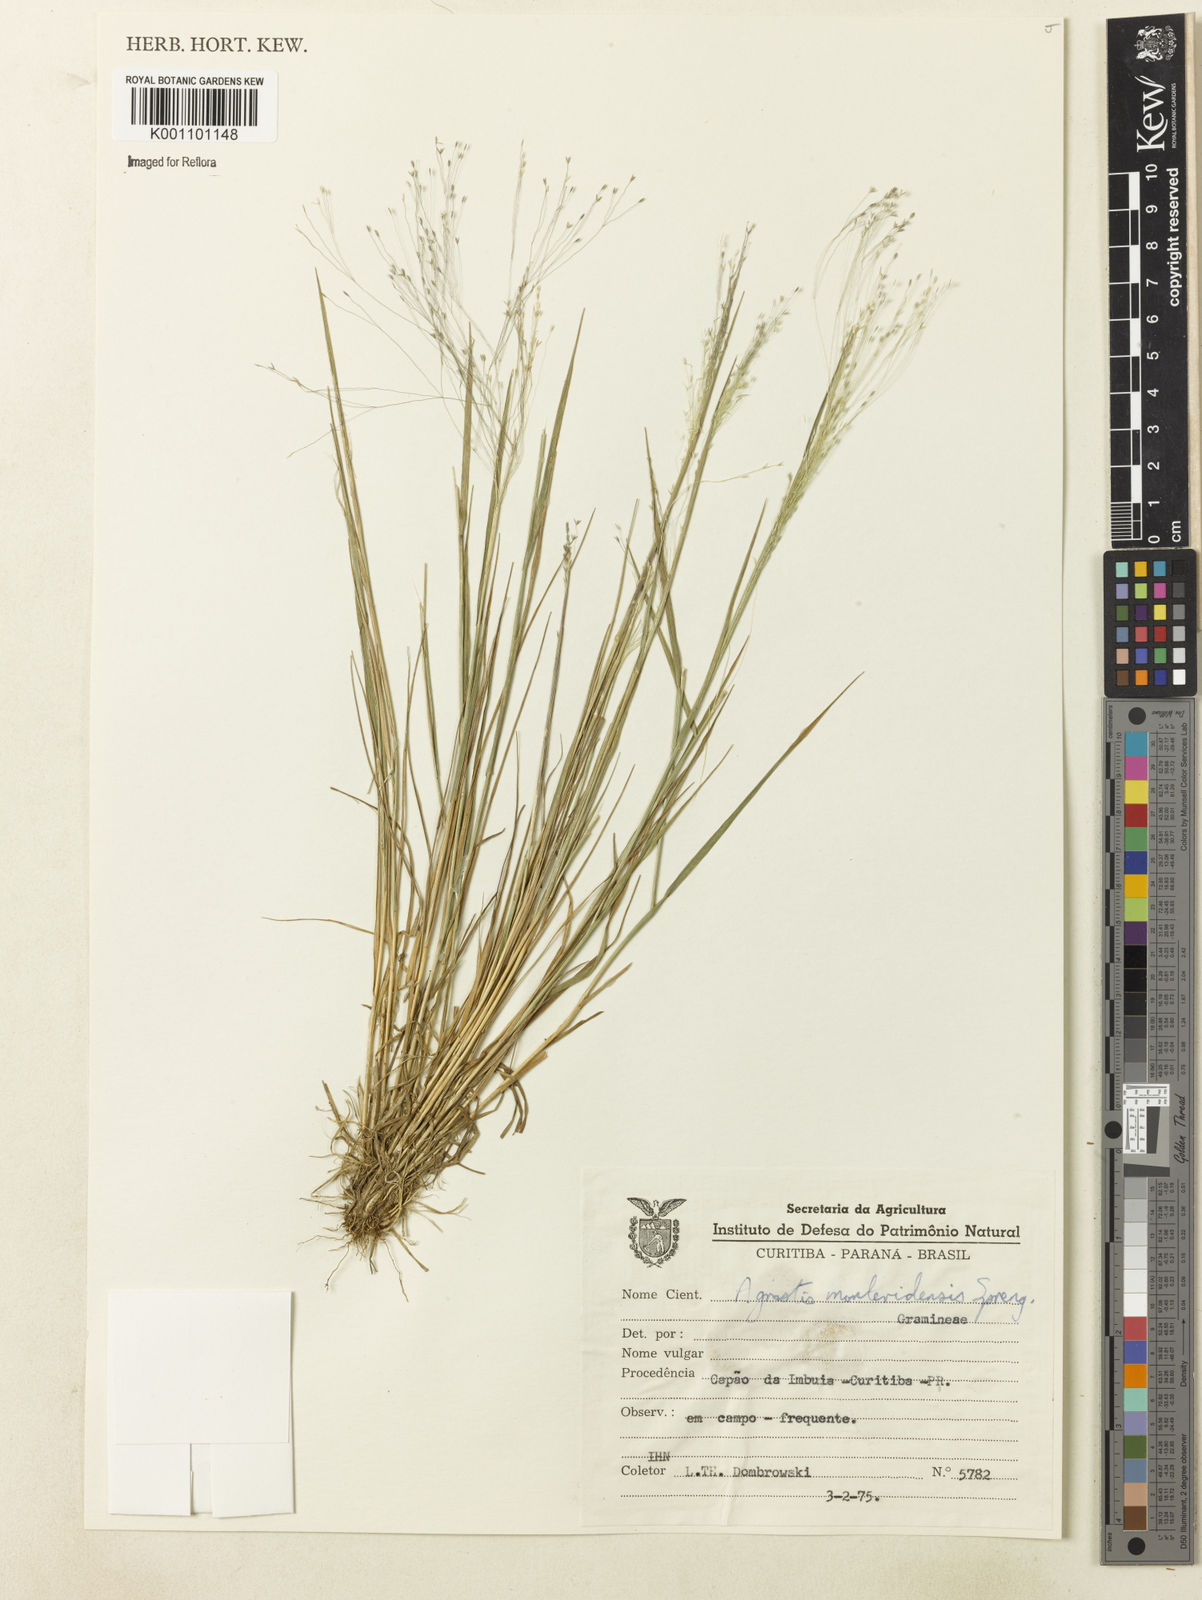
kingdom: Plantae
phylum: Tracheophyta
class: Liliopsida
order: Poales
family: Poaceae
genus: Agrostis
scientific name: Agrostis montevidensis
